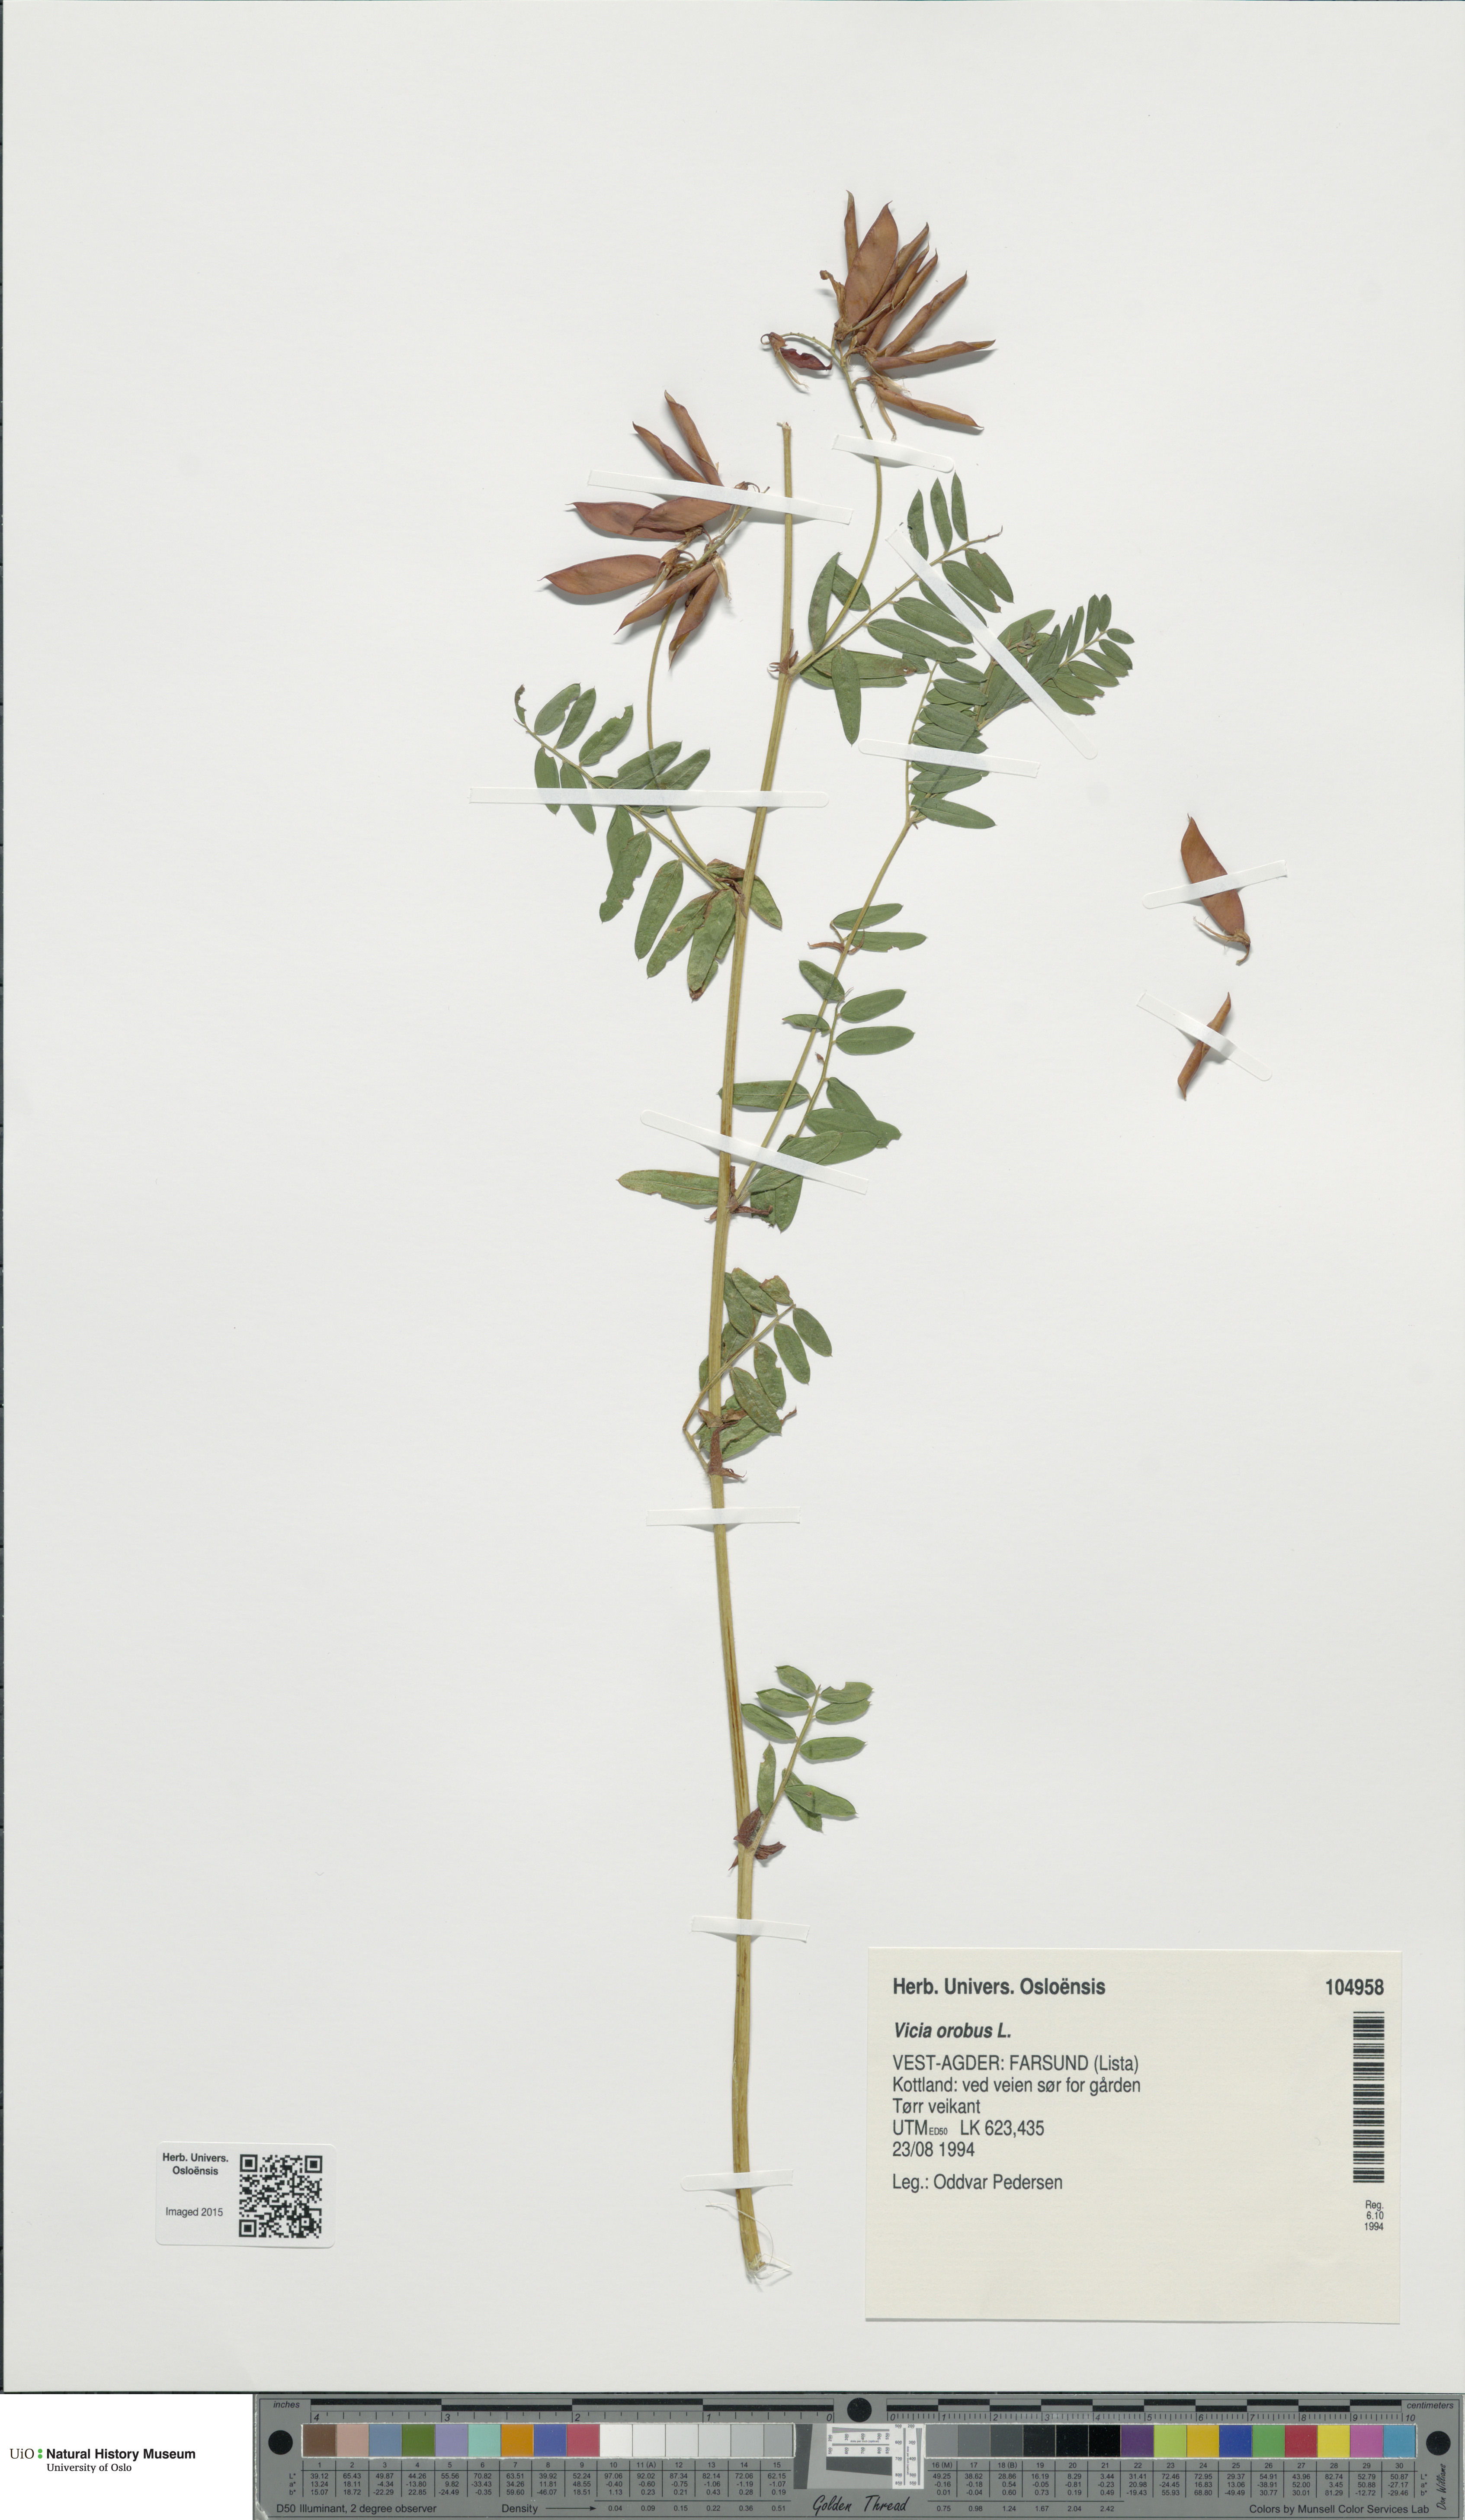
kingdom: Plantae
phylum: Tracheophyta
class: Magnoliopsida
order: Fabales
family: Fabaceae
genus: Vicia
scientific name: Vicia orobus
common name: Wood bitter-vetch
